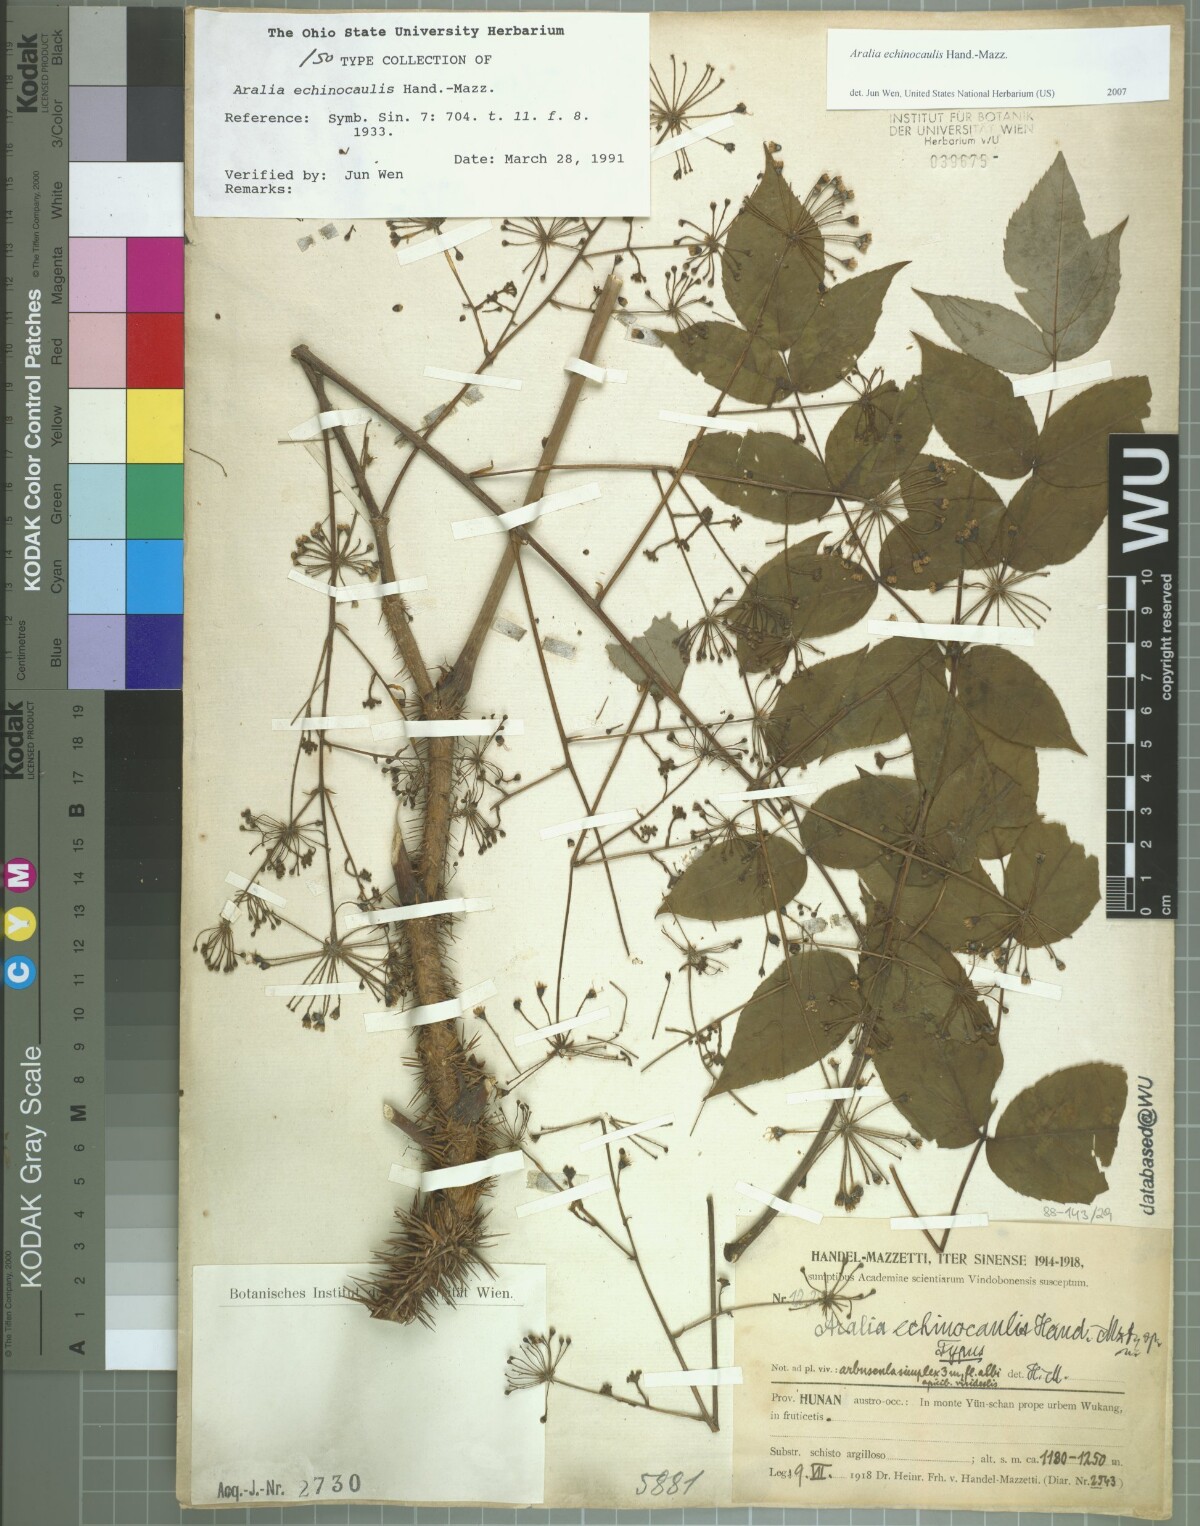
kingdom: Plantae
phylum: Tracheophyta
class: Magnoliopsida
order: Apiales
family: Araliaceae
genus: Aralia
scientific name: Aralia echinocaulis
